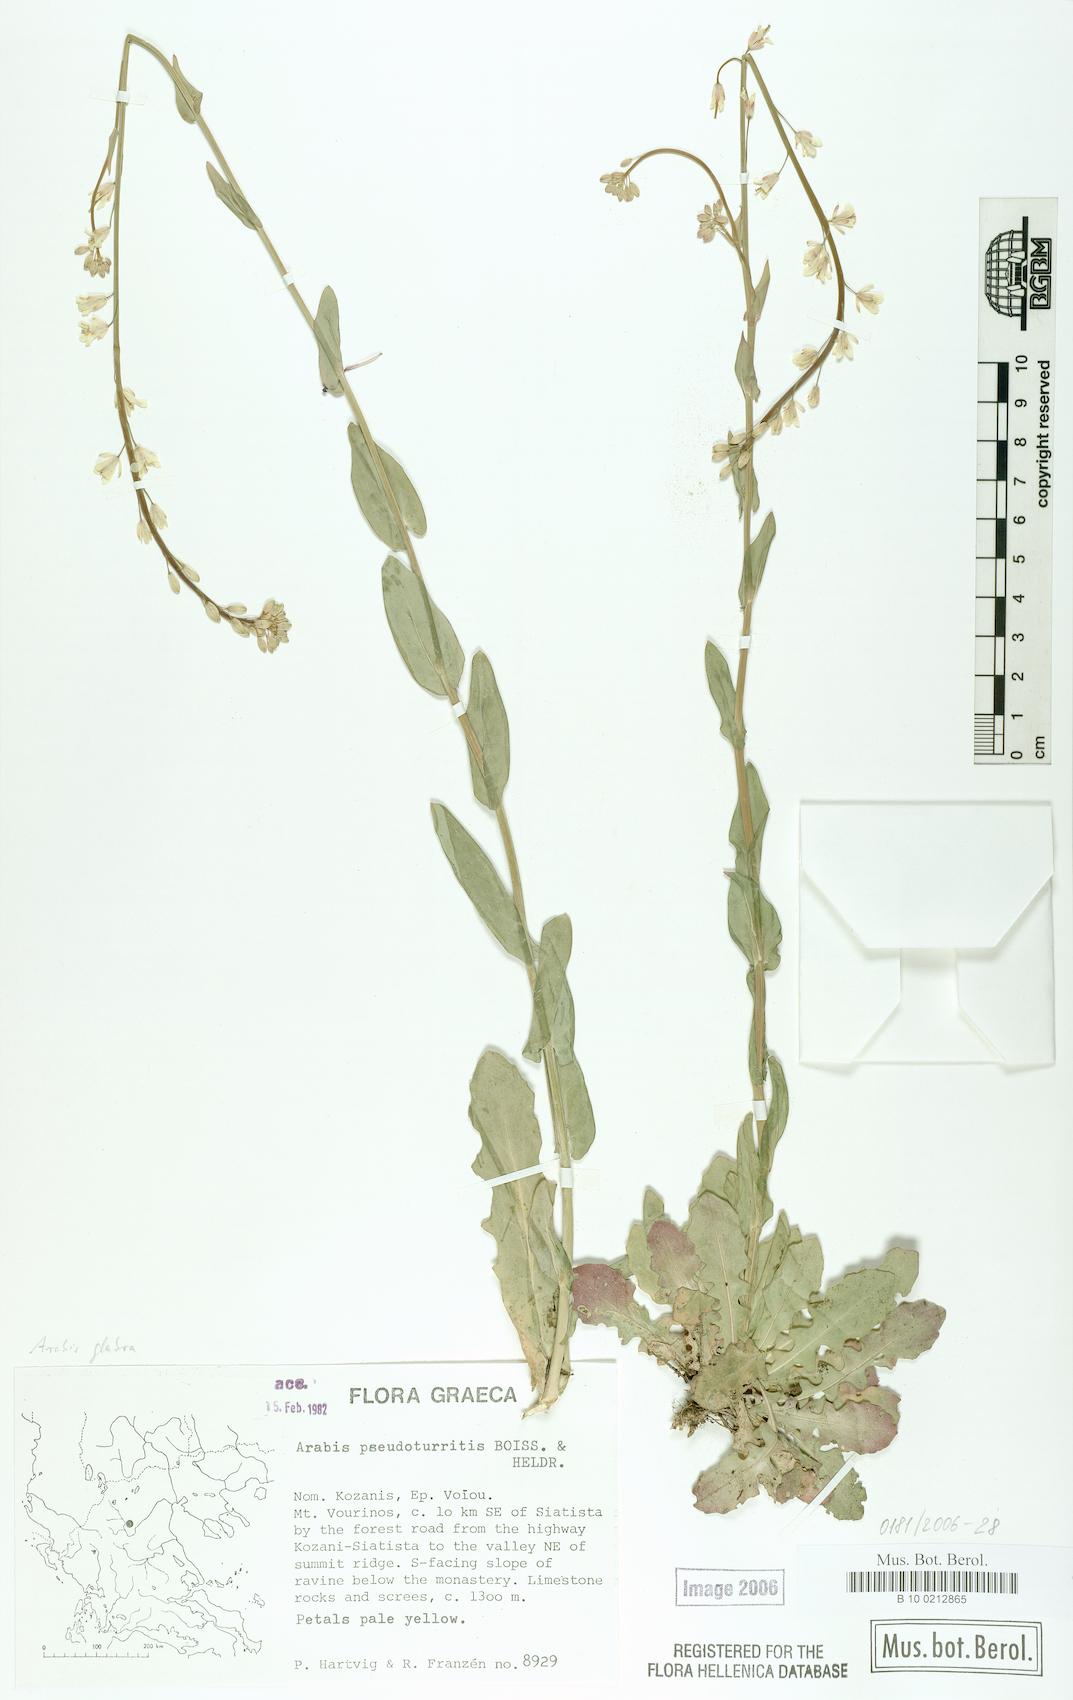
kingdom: Plantae
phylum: Tracheophyta
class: Magnoliopsida
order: Brassicales
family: Brassicaceae
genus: Turritis
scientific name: Turritis glabra
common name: Tower rockcress
